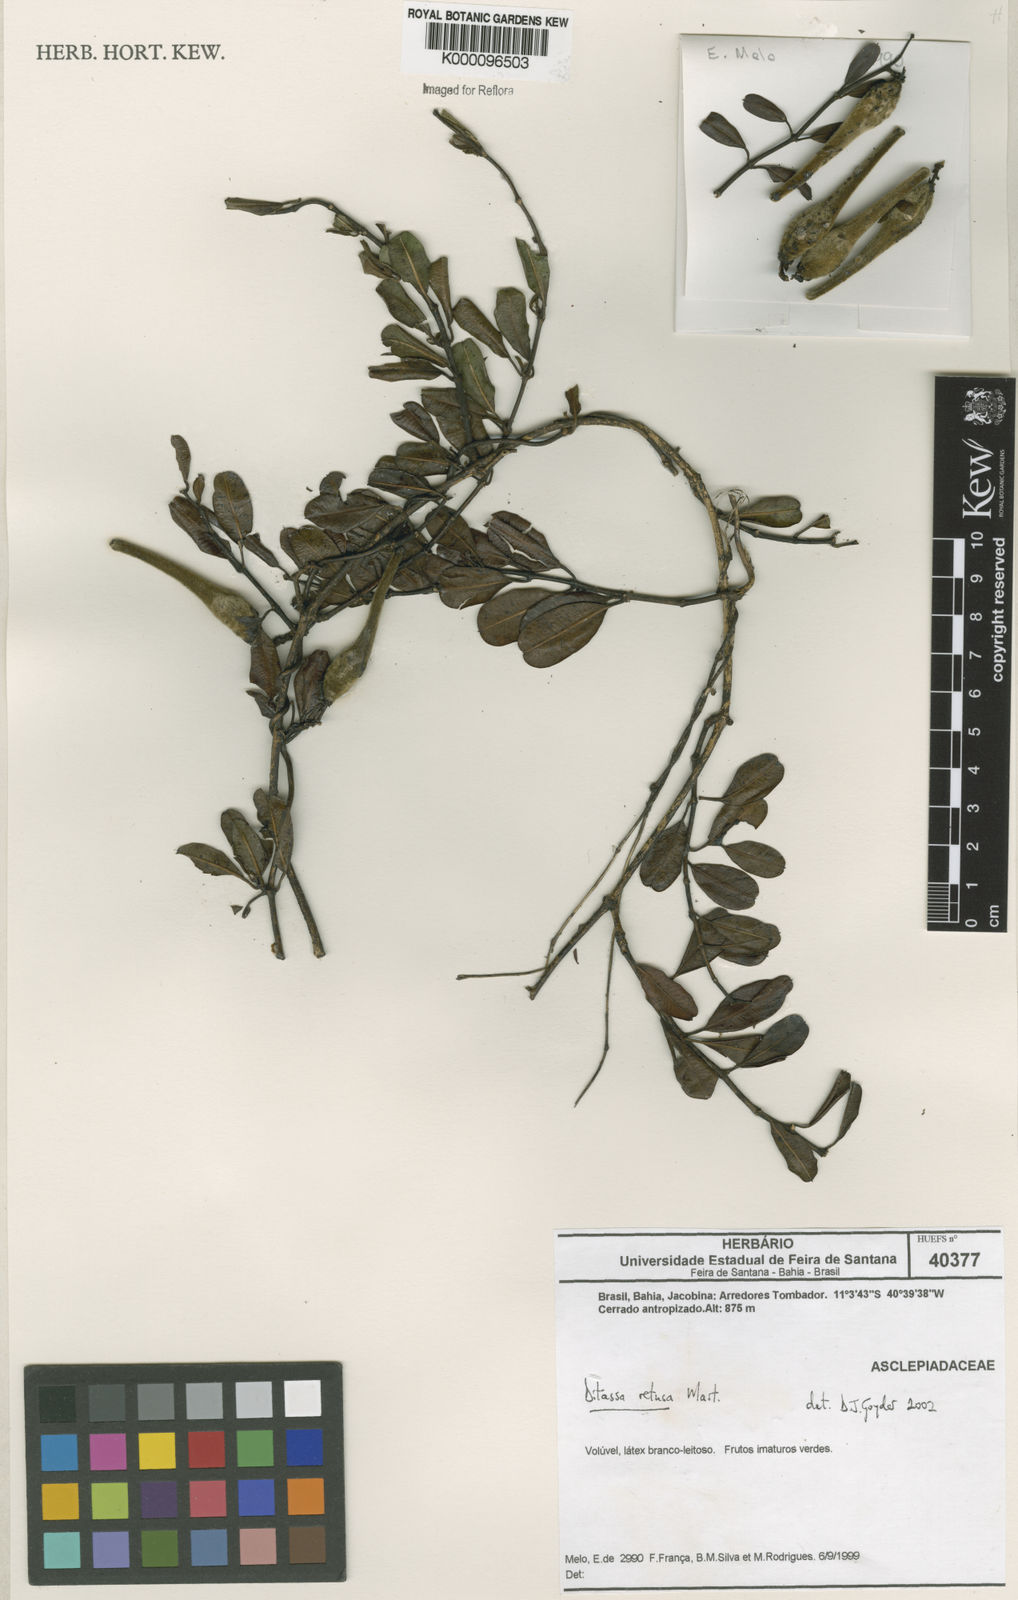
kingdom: Plantae
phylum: Tracheophyta
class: Magnoliopsida
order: Gentianales
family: Apocynaceae
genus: Ditassa
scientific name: Ditassa retusa
